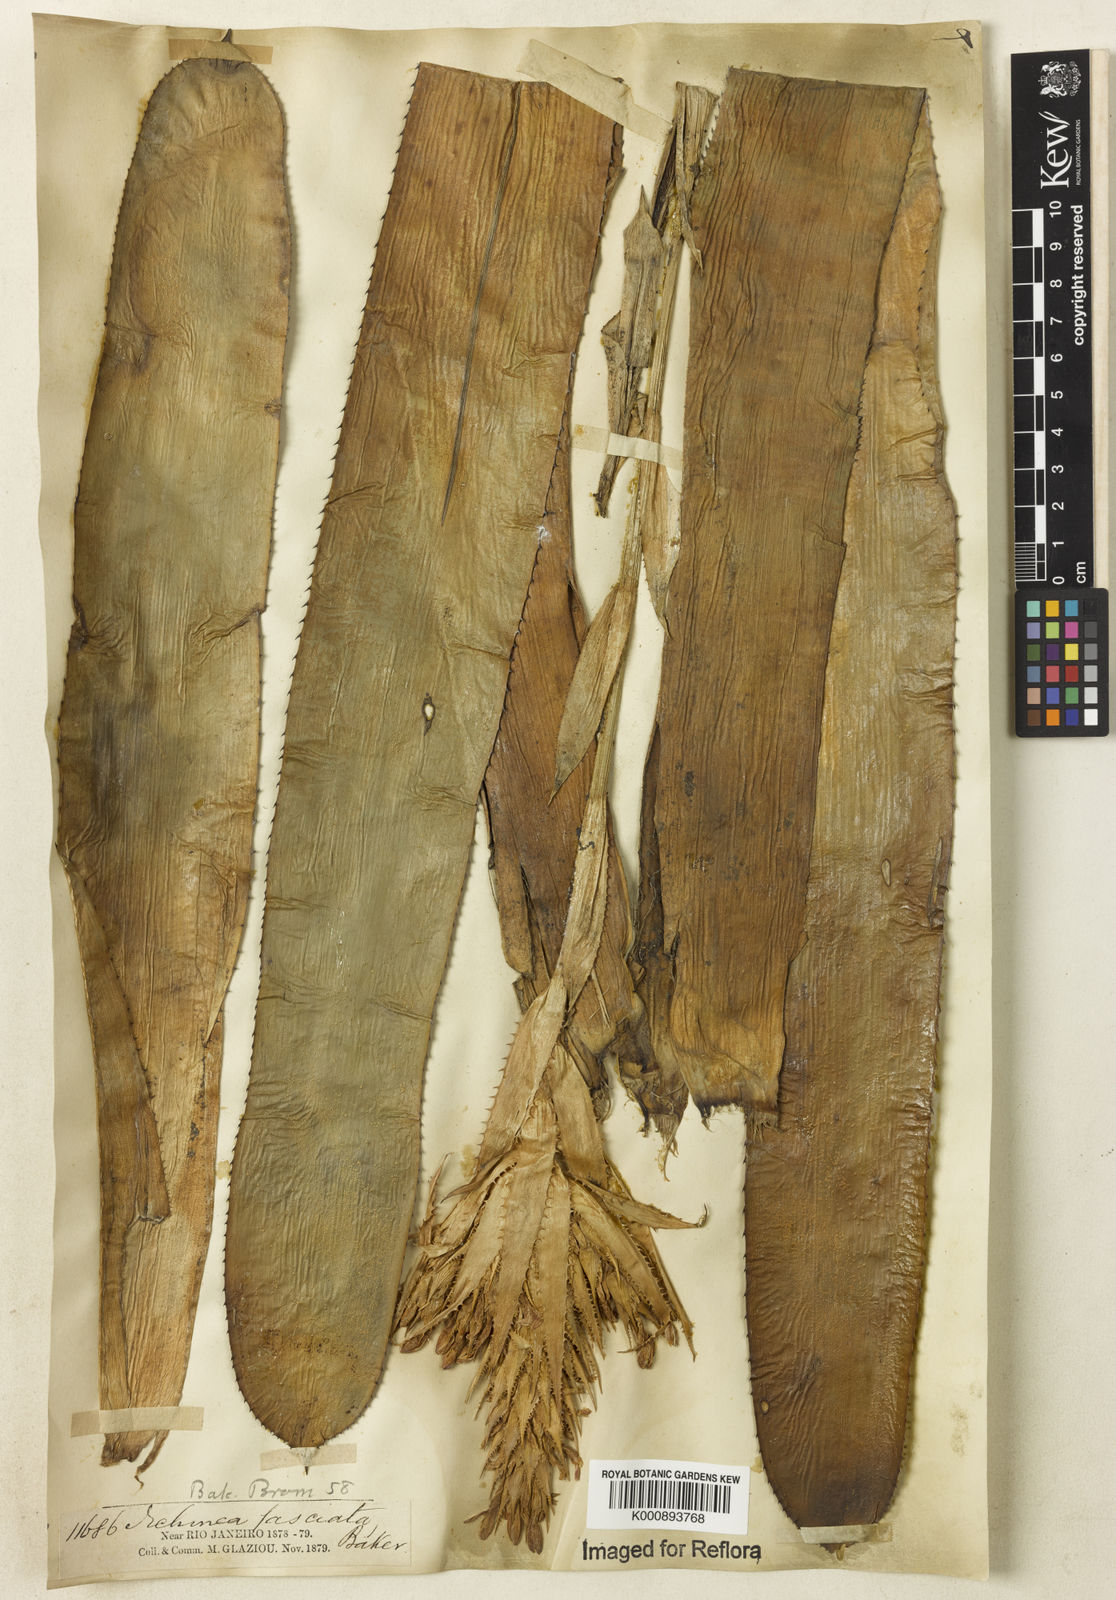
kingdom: Plantae
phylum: Tracheophyta
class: Liliopsida
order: Poales
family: Bromeliaceae
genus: Aechmea
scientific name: Aechmea fasciata
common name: Urnplant
